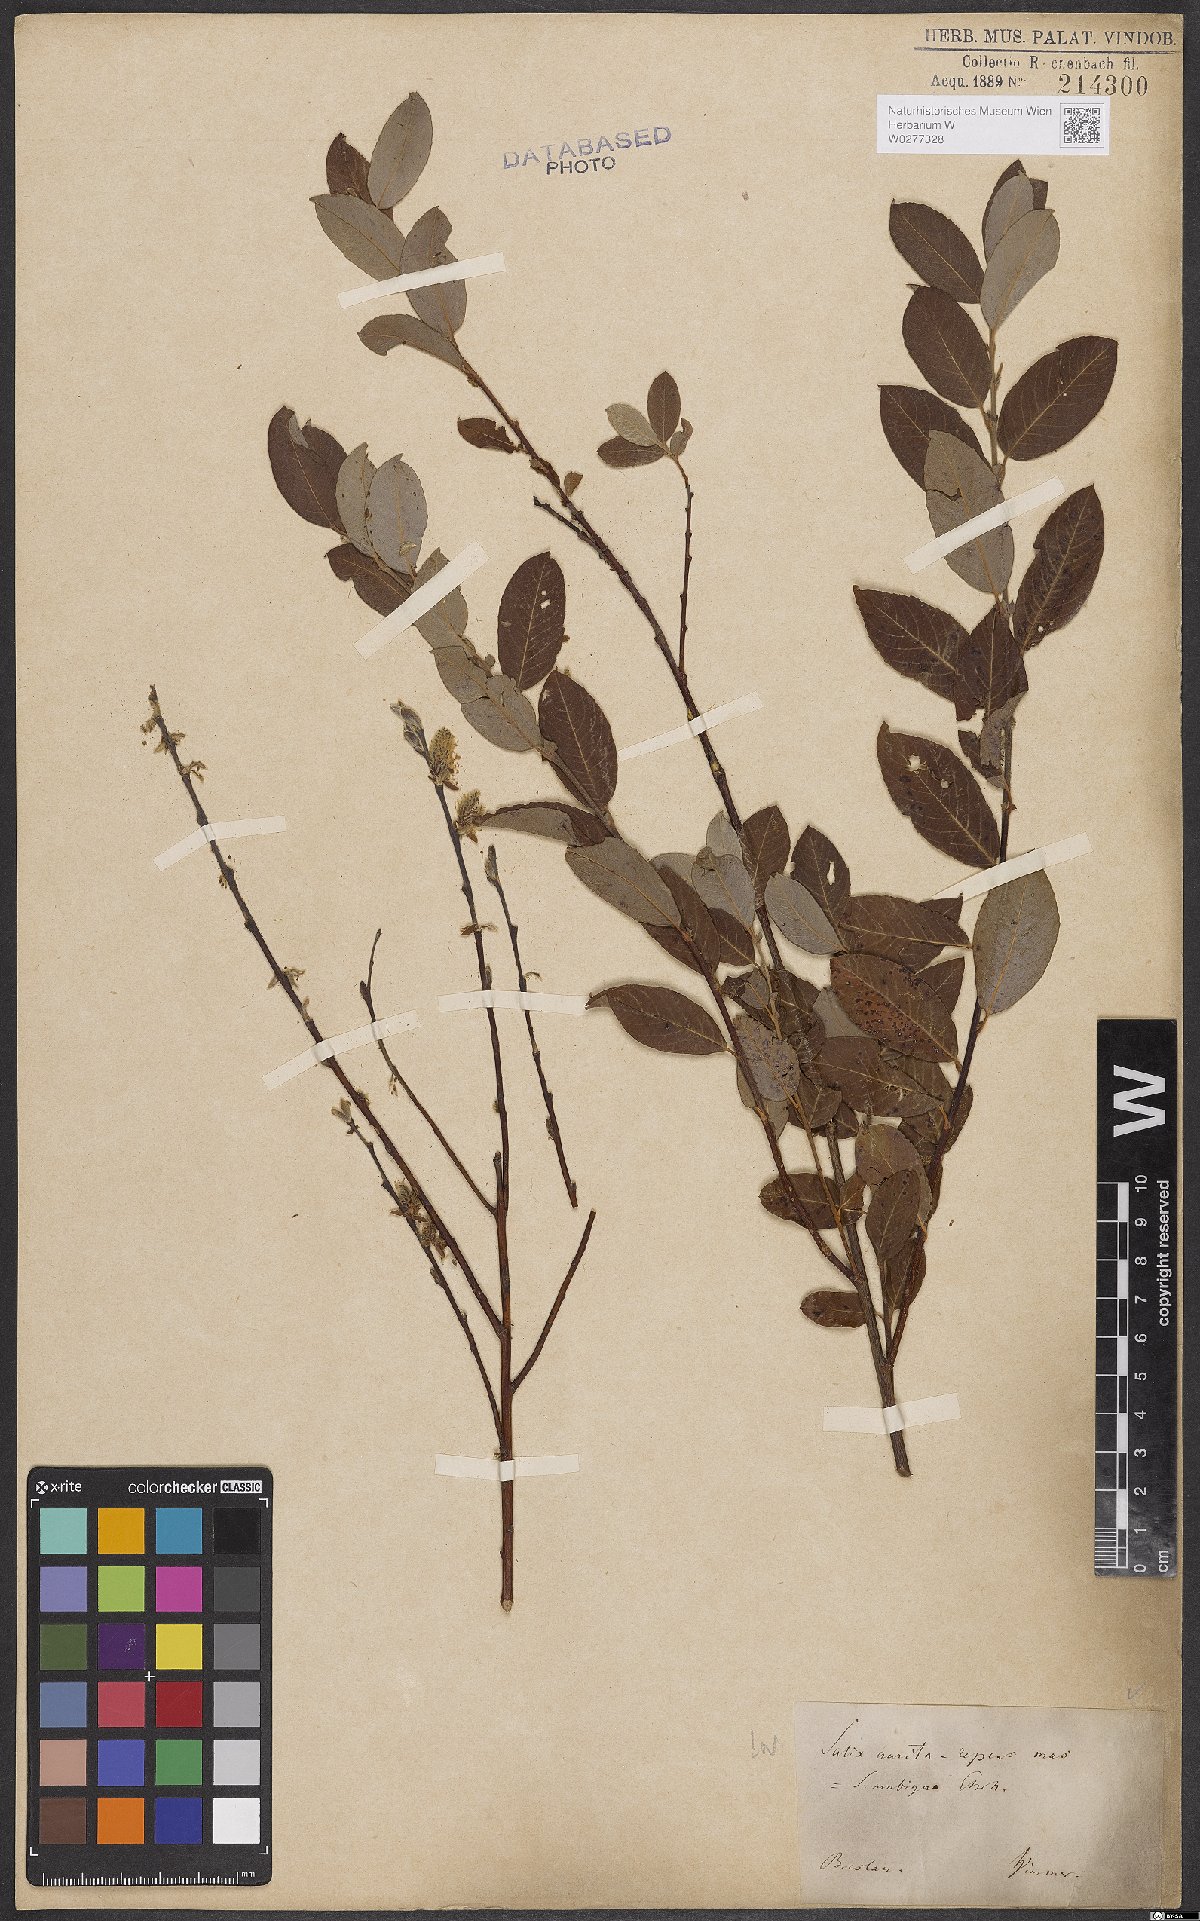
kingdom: Plantae
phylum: Tracheophyta
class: Magnoliopsida
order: Malpighiales
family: Salicaceae
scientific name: Salicaceae
